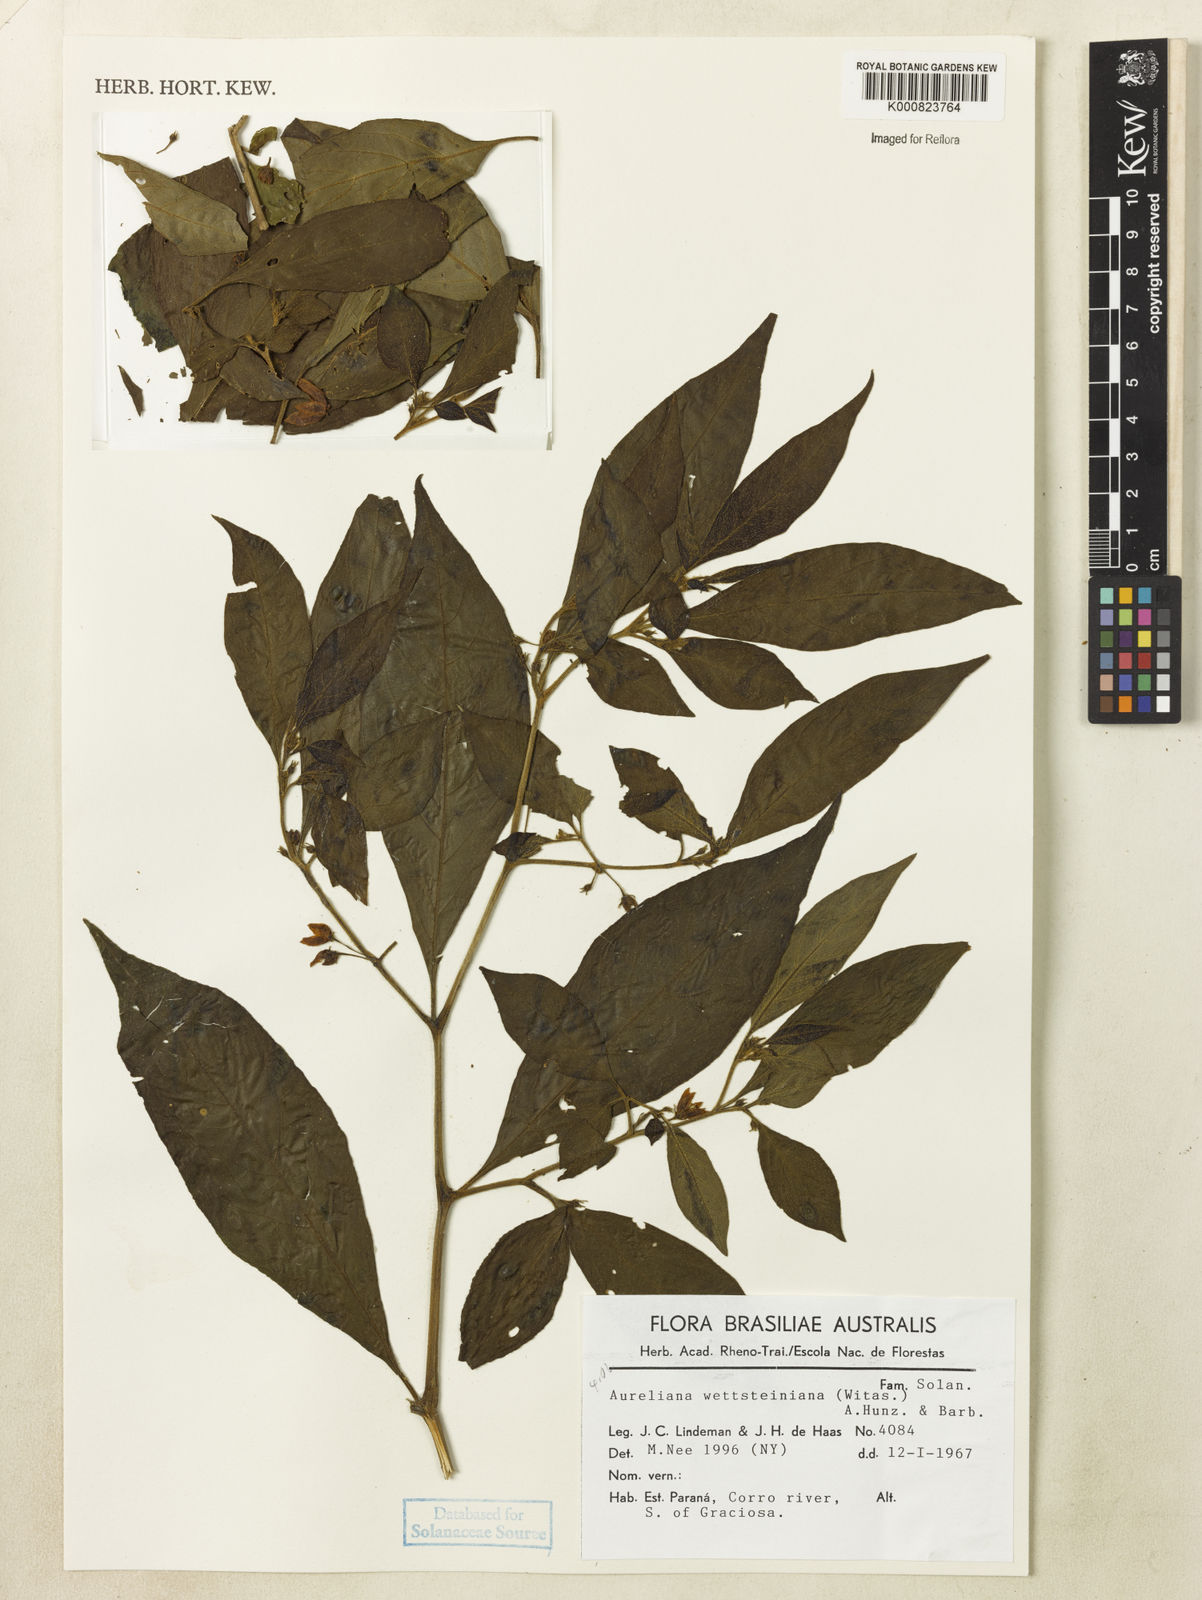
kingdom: Plantae
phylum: Tracheophyta
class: Magnoliopsida
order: Solanales
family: Solanaceae
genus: Athenaea
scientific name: Athenaea wettsteiniana
